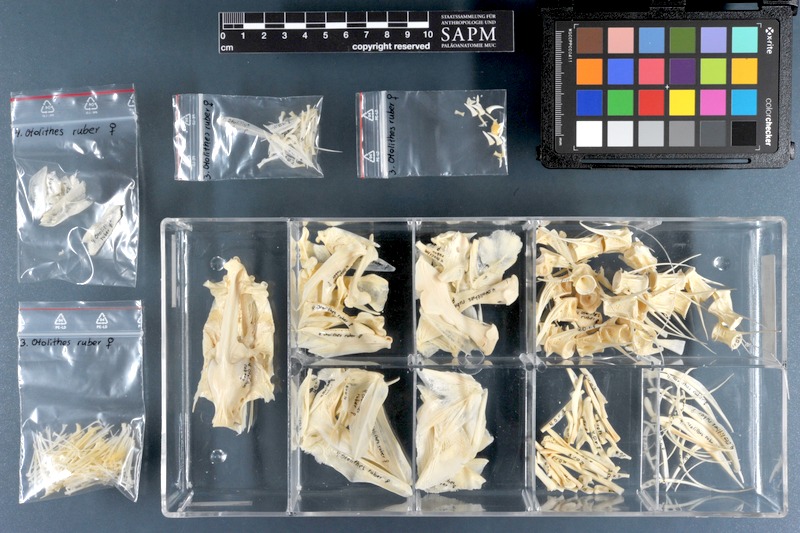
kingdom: Animalia
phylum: Chordata
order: Perciformes
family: Sciaenidae
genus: Otolithes
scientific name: Otolithes ruber
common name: Croaker
